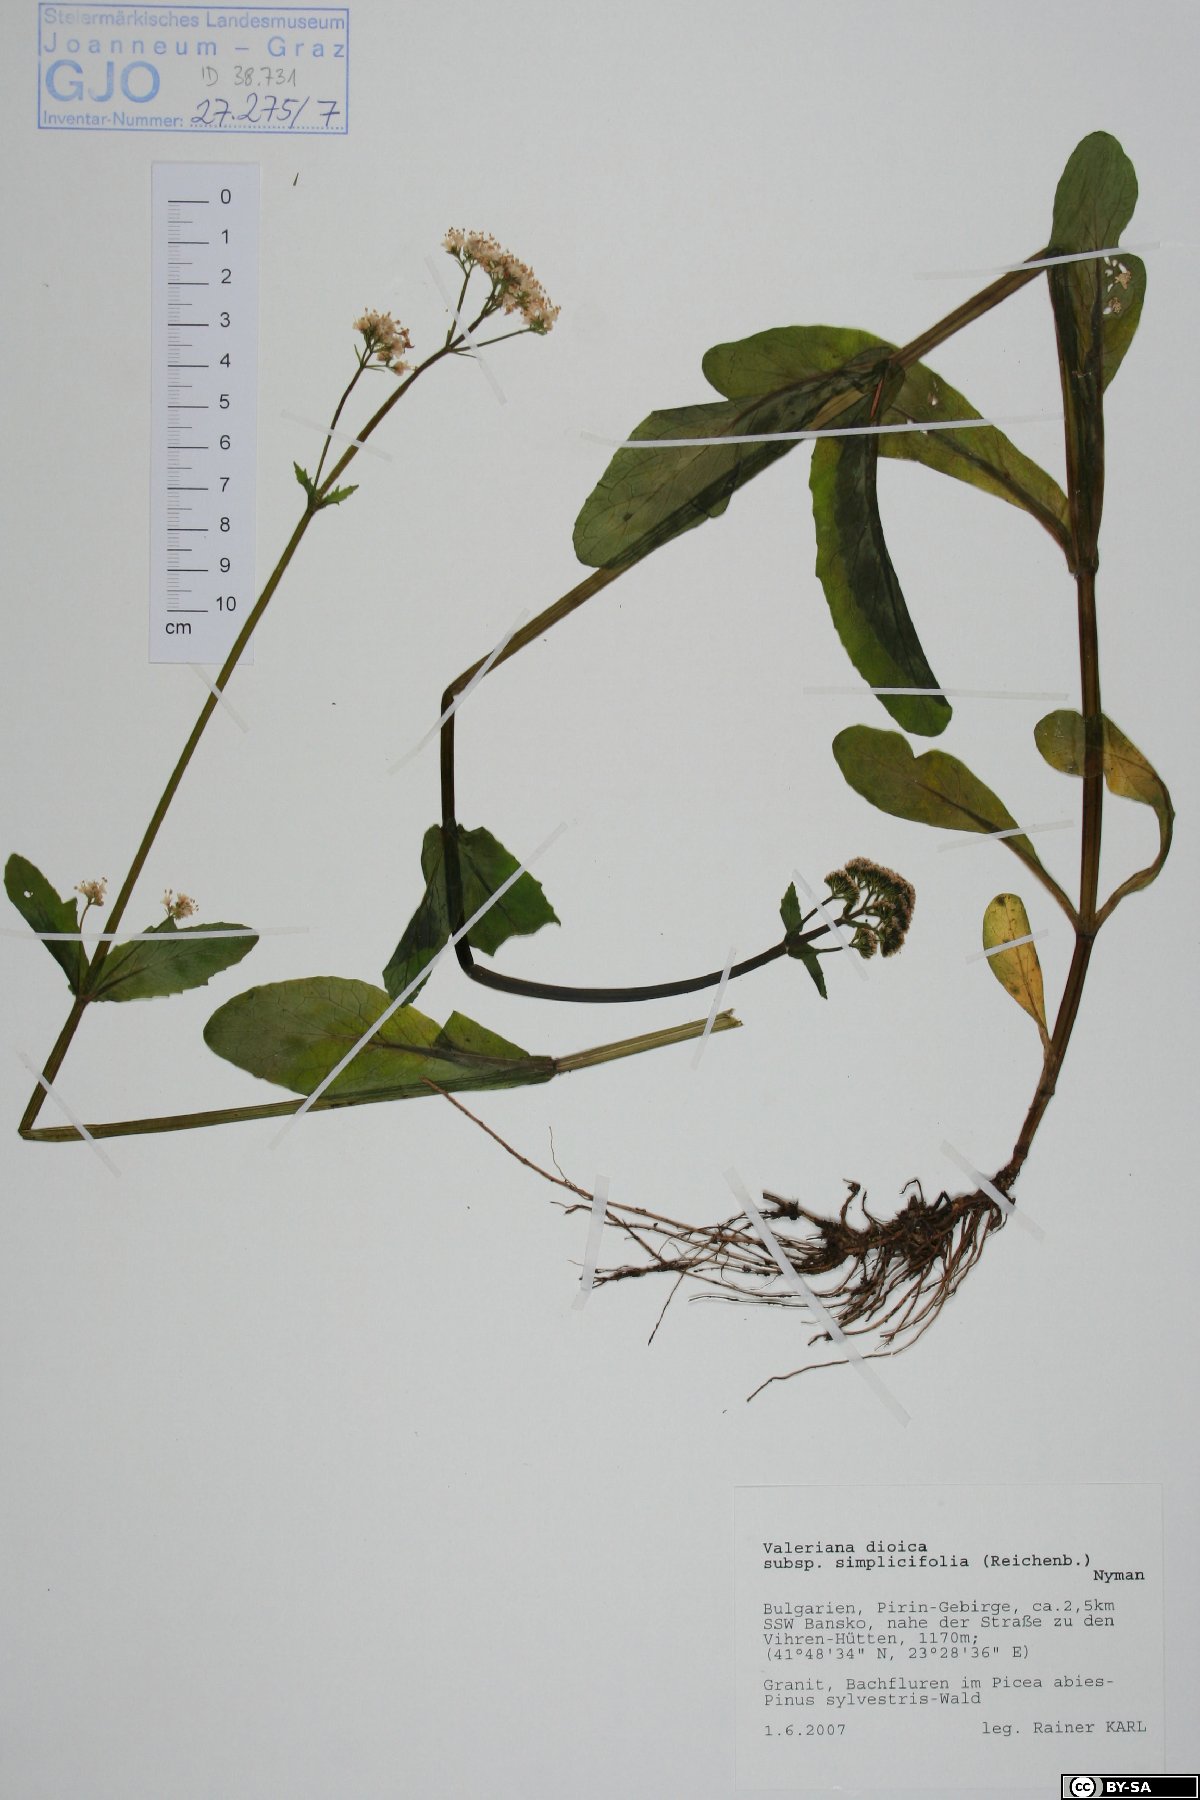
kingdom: Plantae
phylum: Tracheophyta
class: Magnoliopsida
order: Dipsacales
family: Caprifoliaceae
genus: Valeriana
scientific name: Valeriana dioica
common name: Marsh valerian
